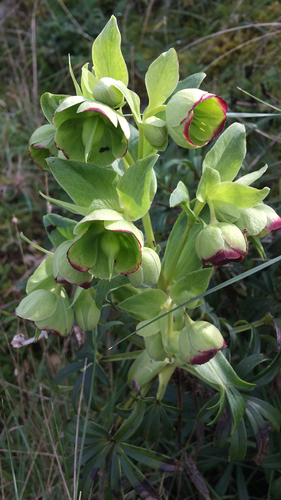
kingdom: Plantae
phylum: Tracheophyta
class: Magnoliopsida
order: Ranunculales
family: Ranunculaceae
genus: Helleborus
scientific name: Helleborus foetidus
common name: Stinking hellebore
